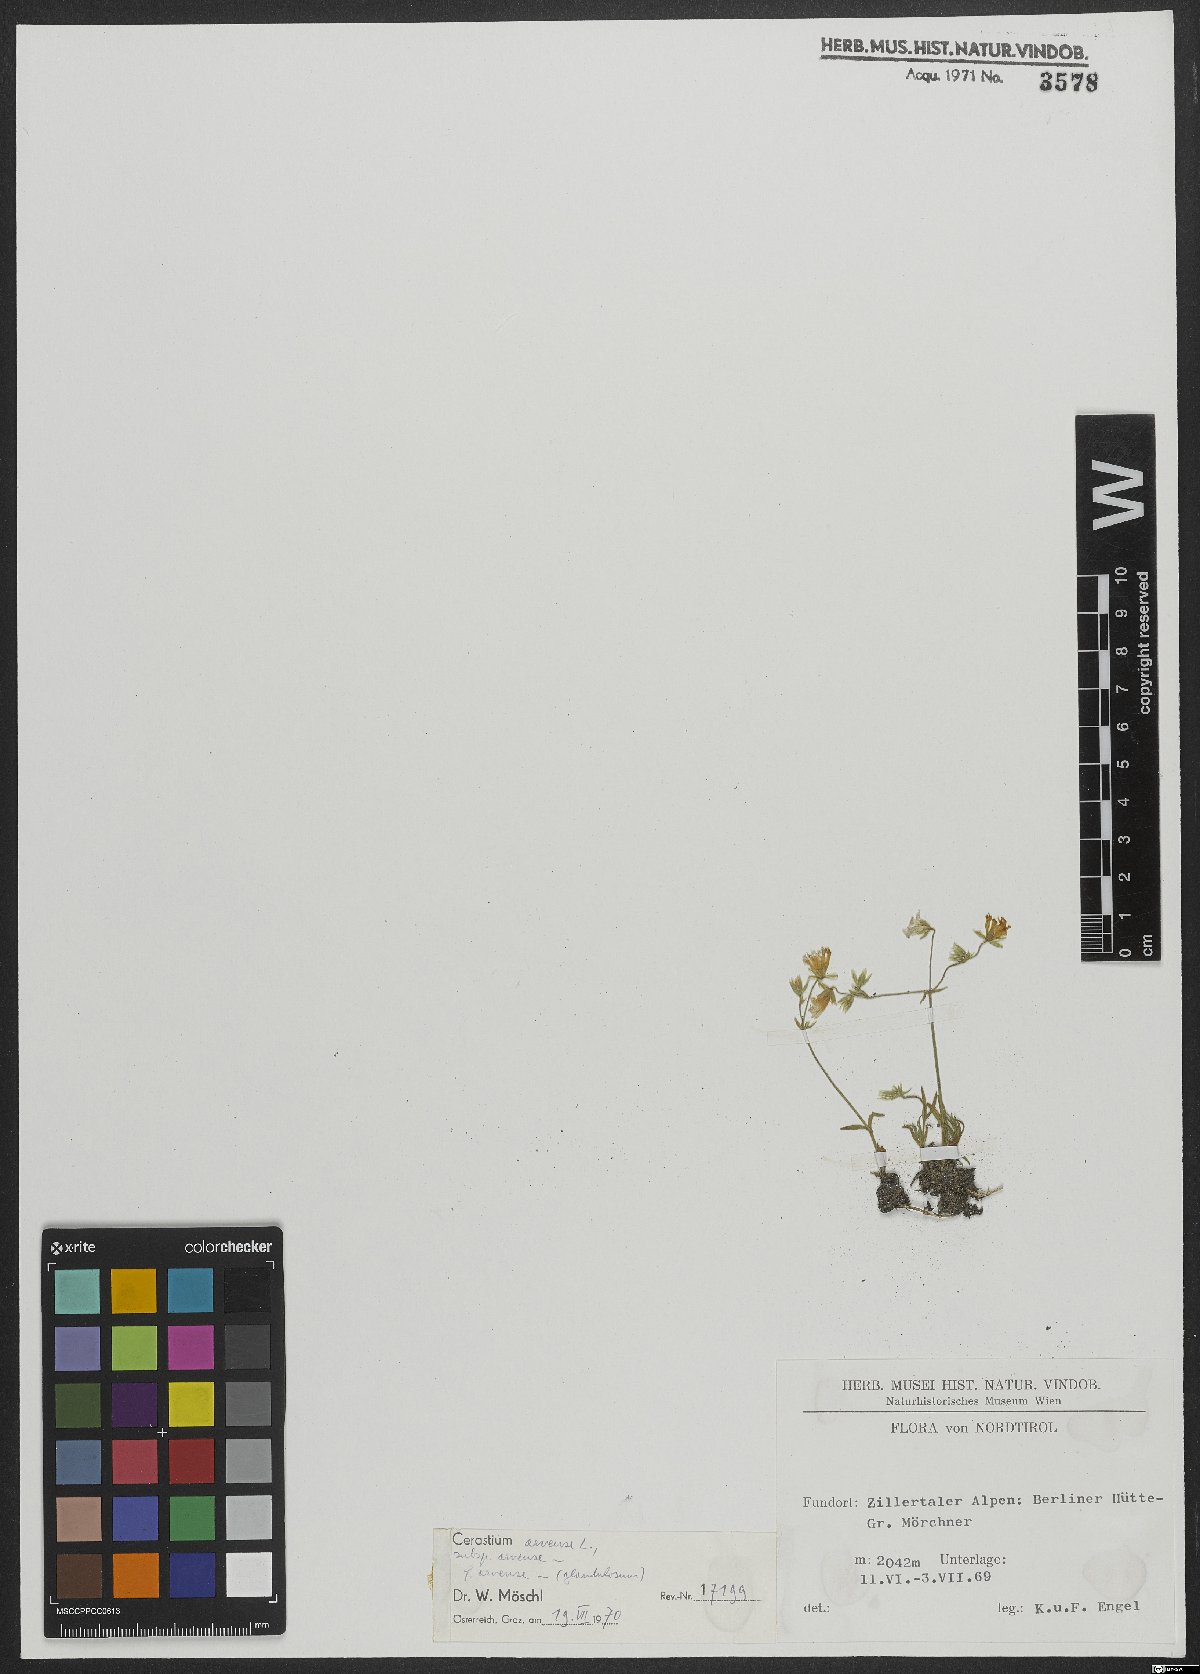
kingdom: Plantae
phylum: Tracheophyta
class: Magnoliopsida
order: Caryophyllales
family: Caryophyllaceae
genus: Cerastium
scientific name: Cerastium arvense
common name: Field mouse-ear
